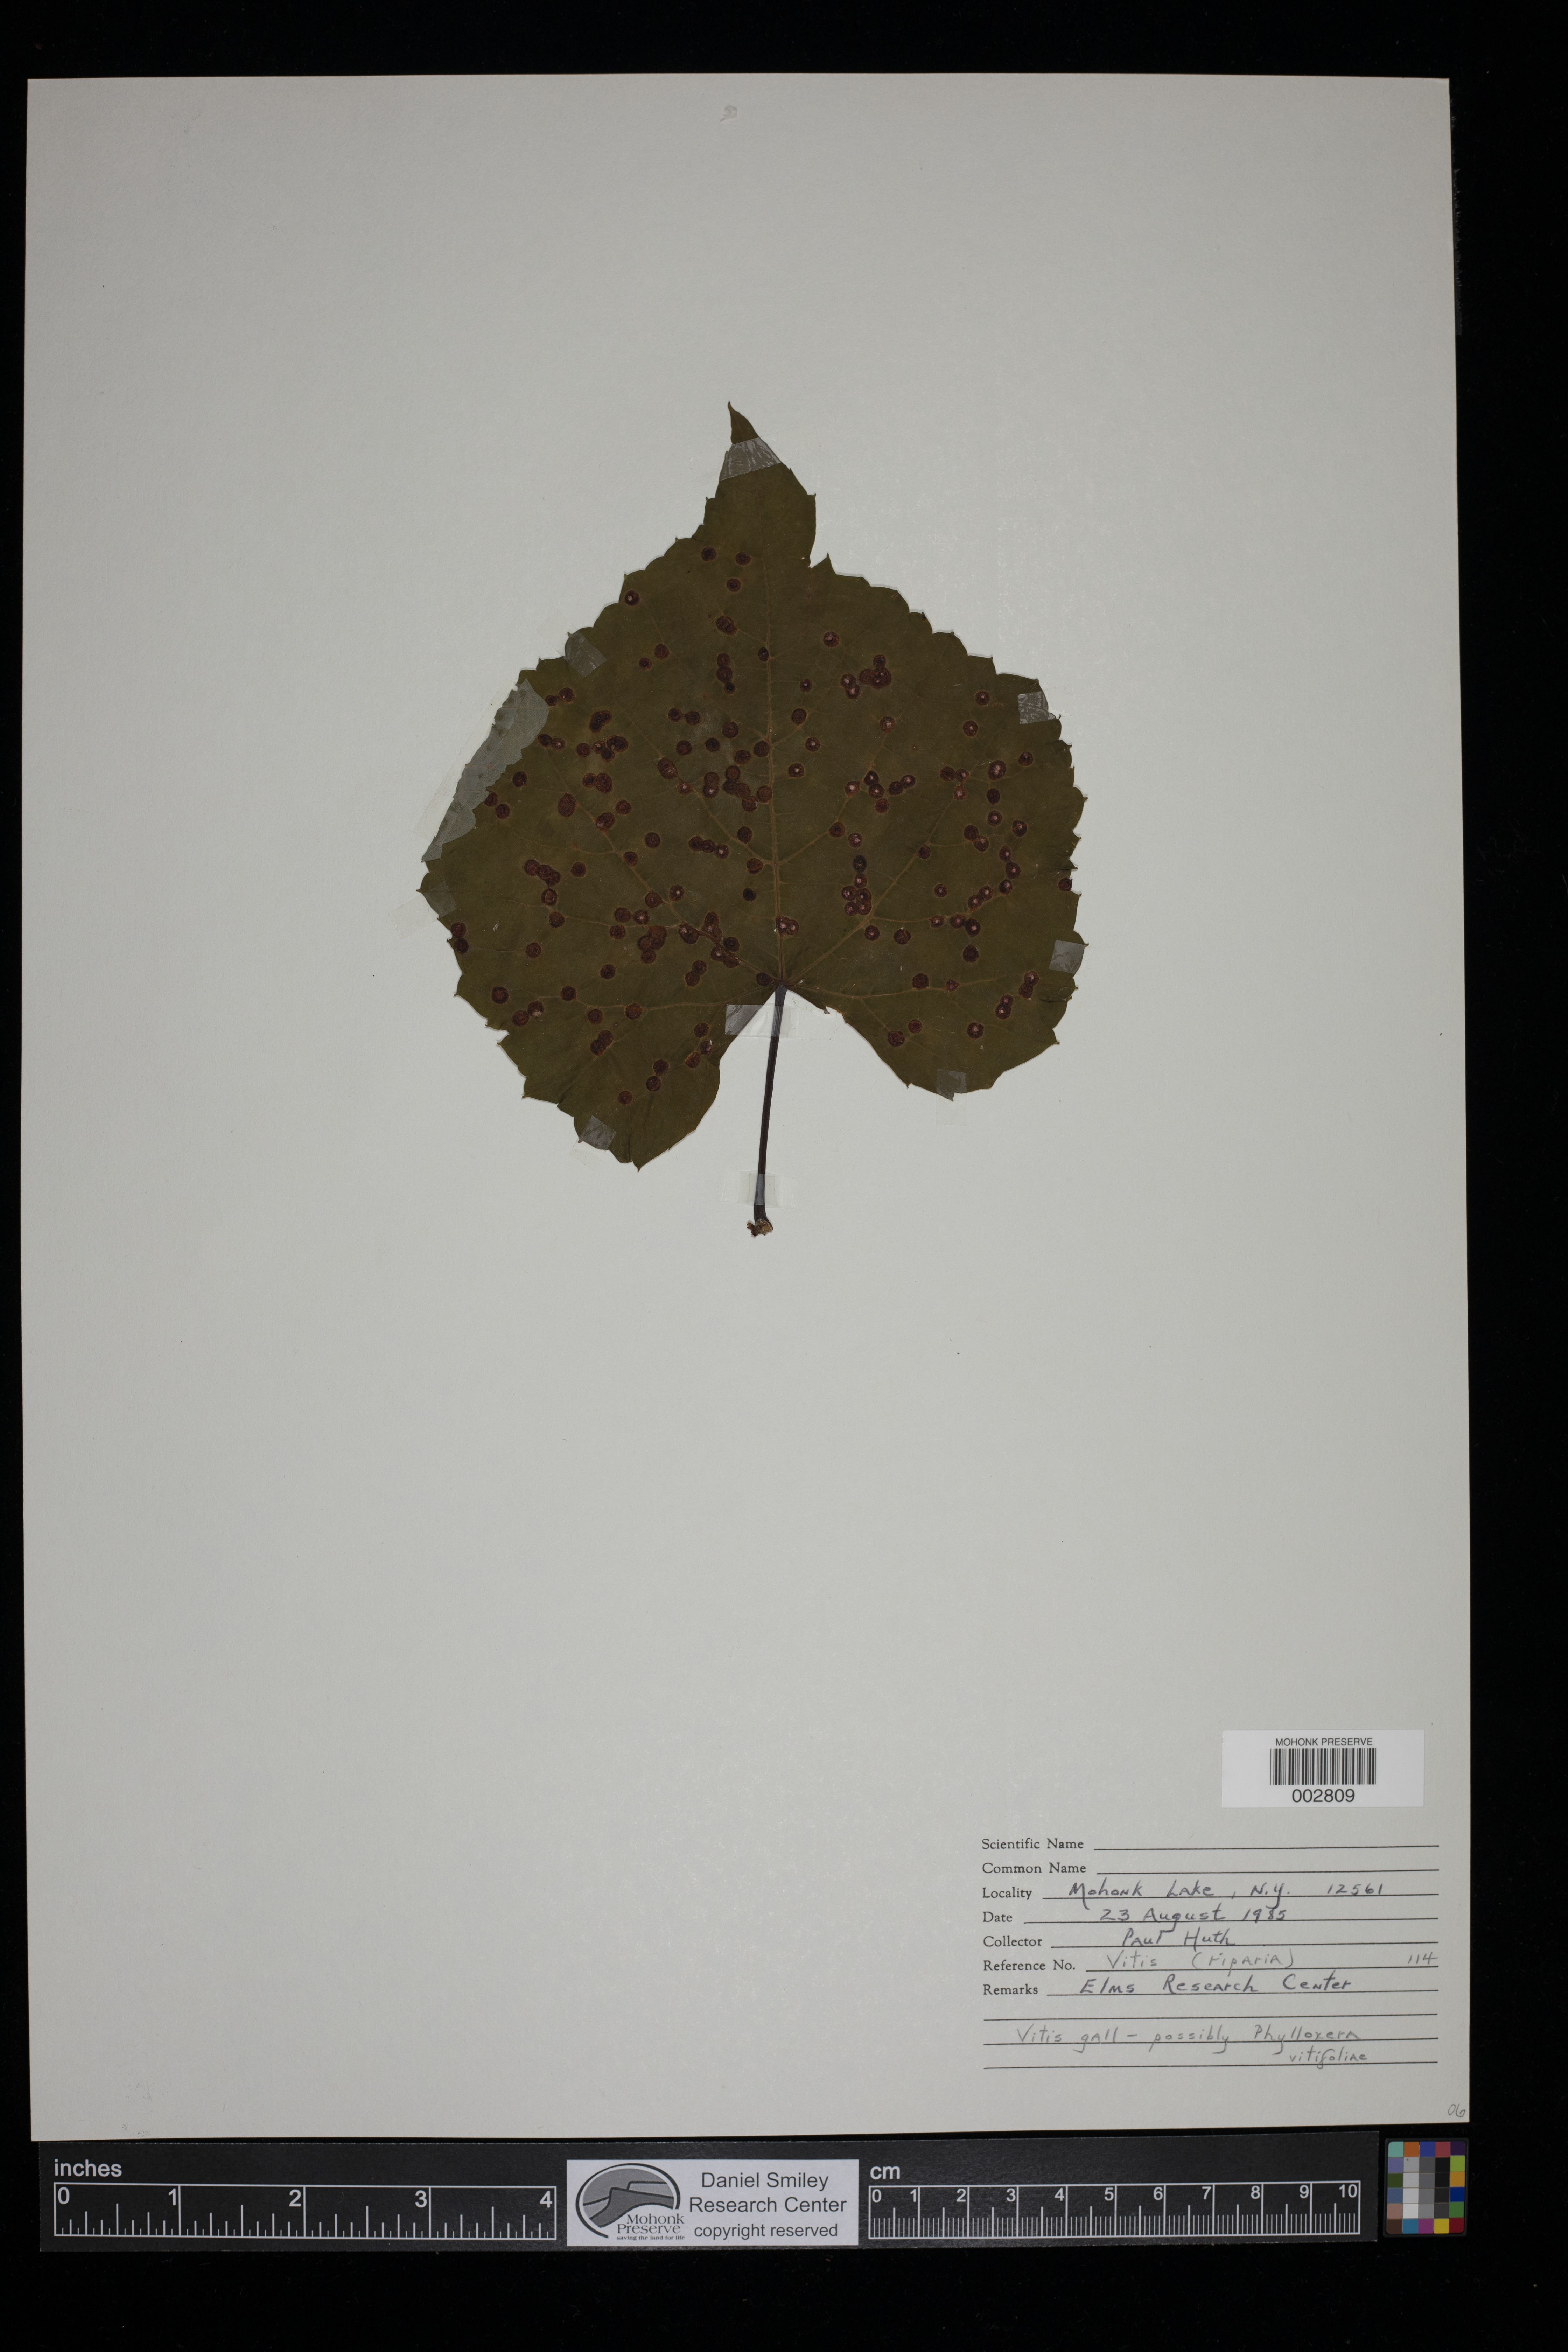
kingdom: Plantae
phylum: Tracheophyta
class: Magnoliopsida
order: Vitales
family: Vitaceae
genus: Vitis
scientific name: Vitis riparia
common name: Frost grape
